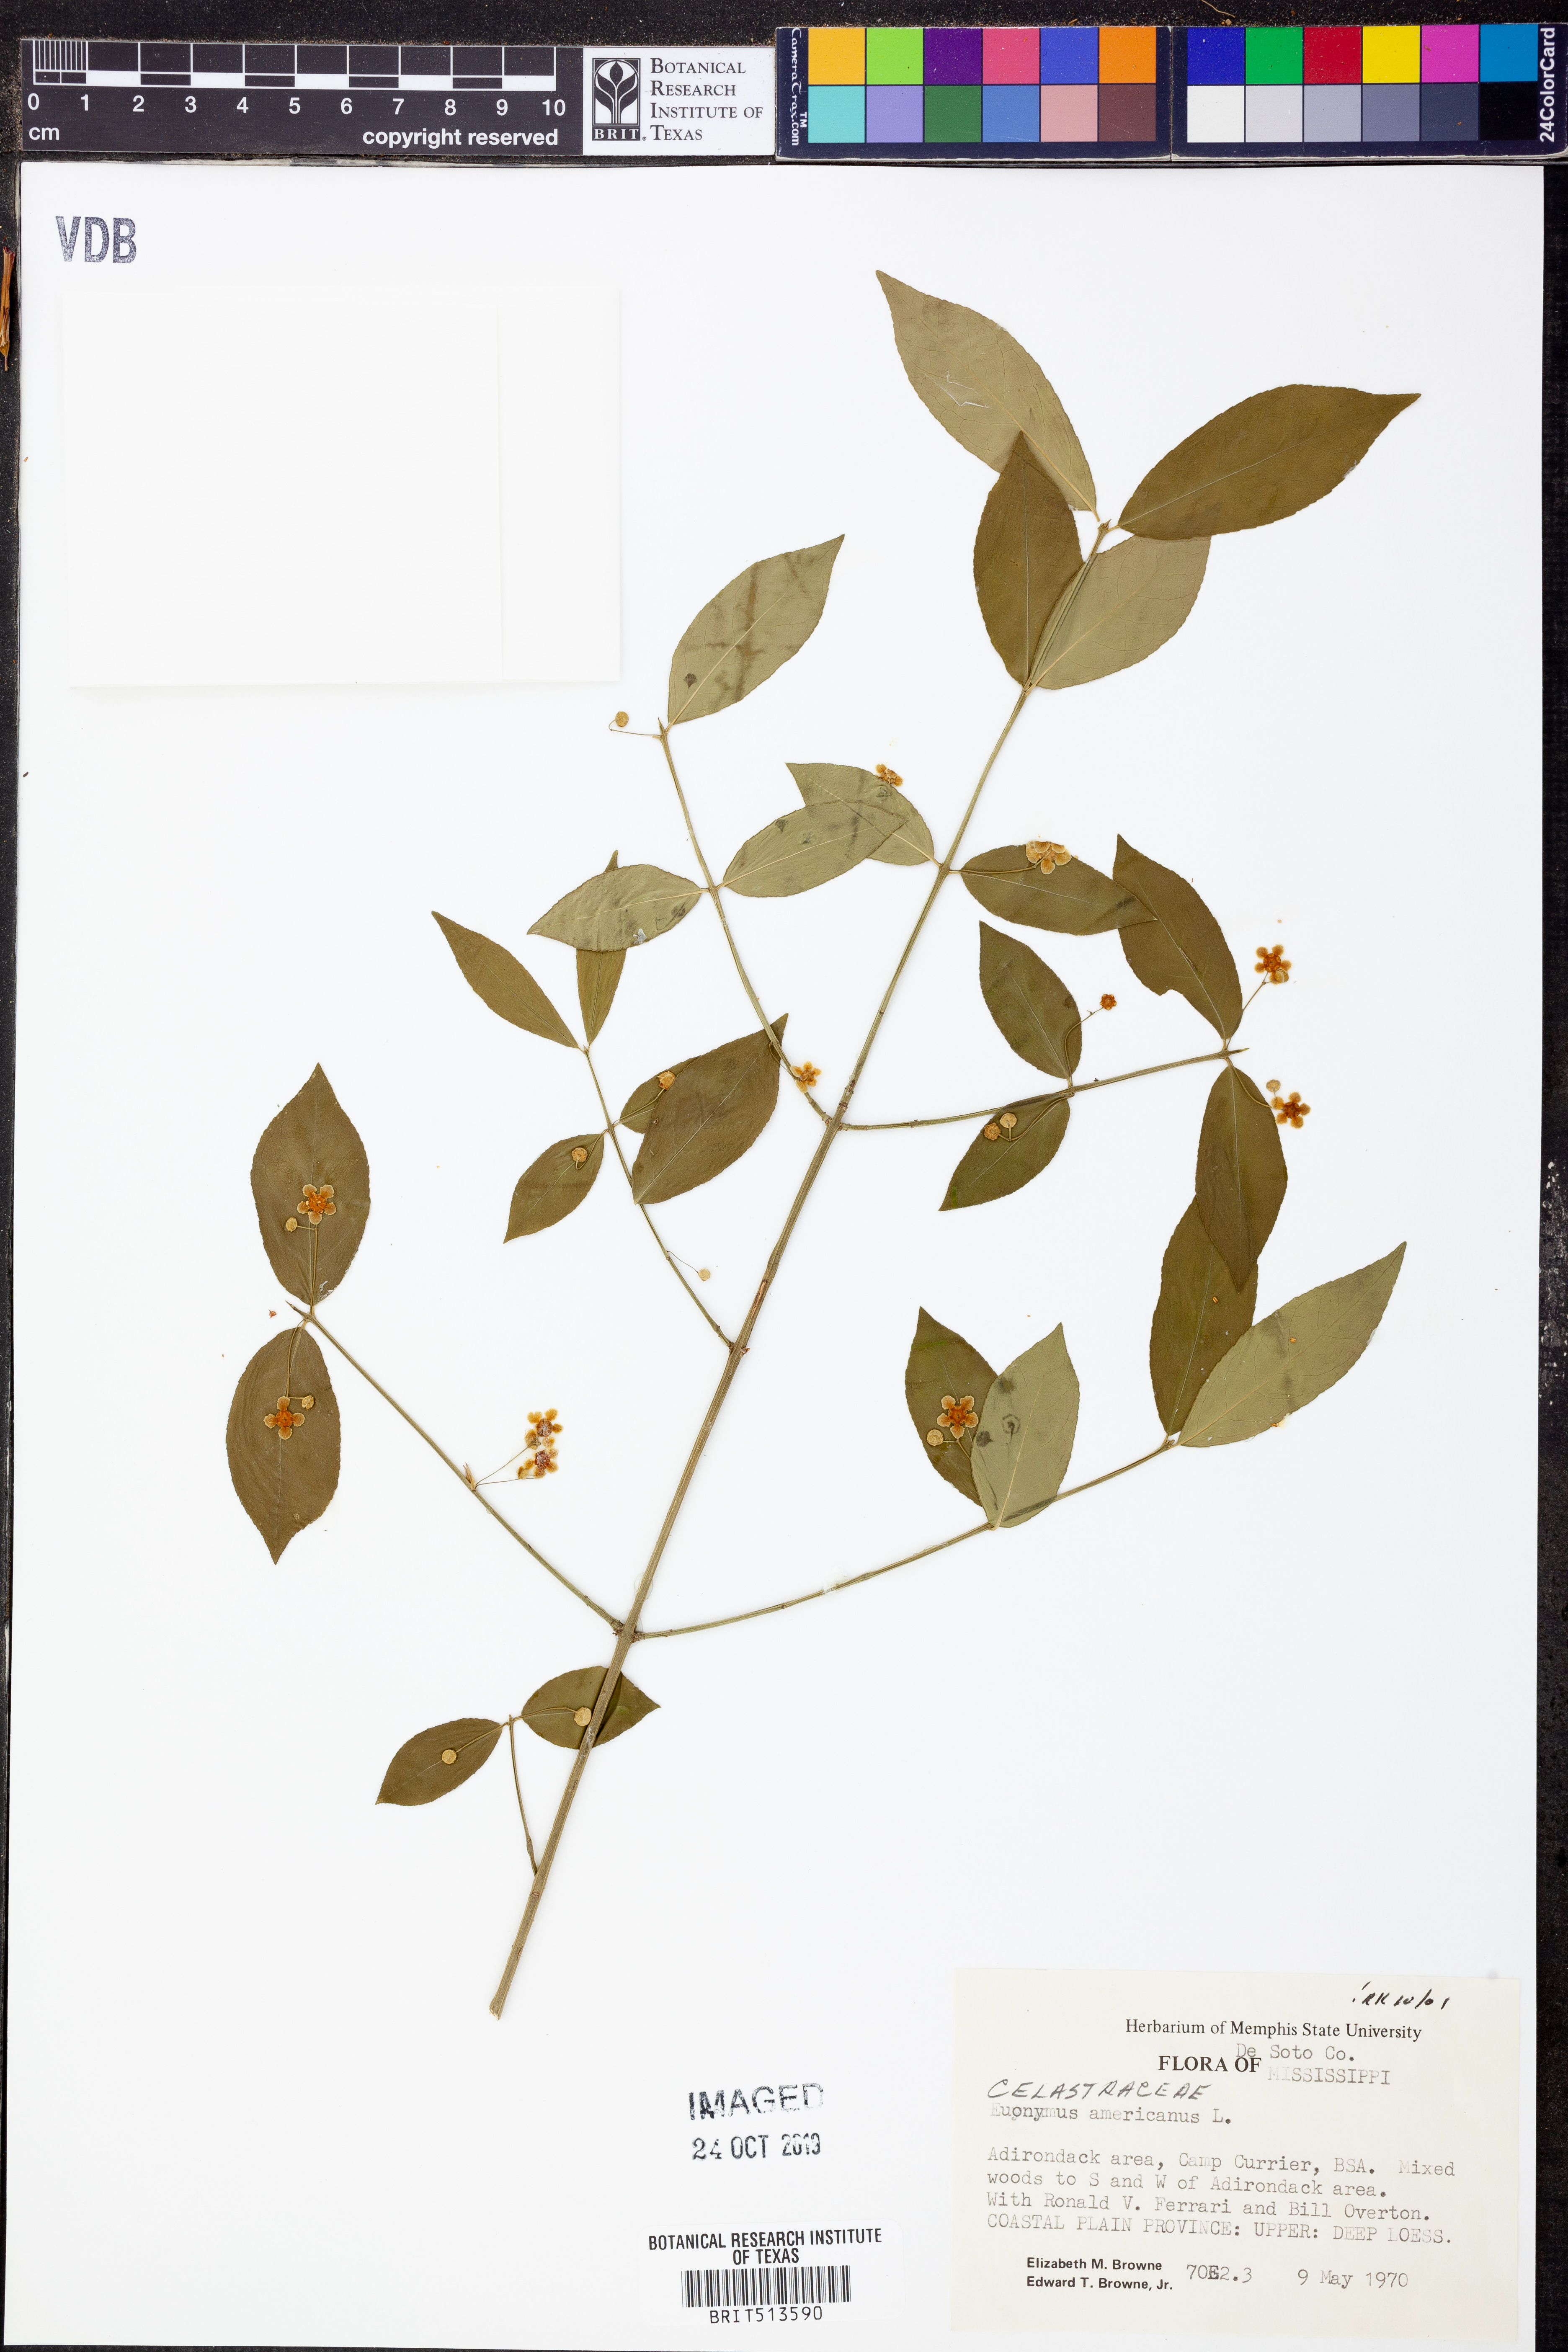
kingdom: Plantae
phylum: Tracheophyta
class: Magnoliopsida
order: Celastrales
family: Celastraceae
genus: Euonymus
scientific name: Euonymus americanus
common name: Bursting-heart
